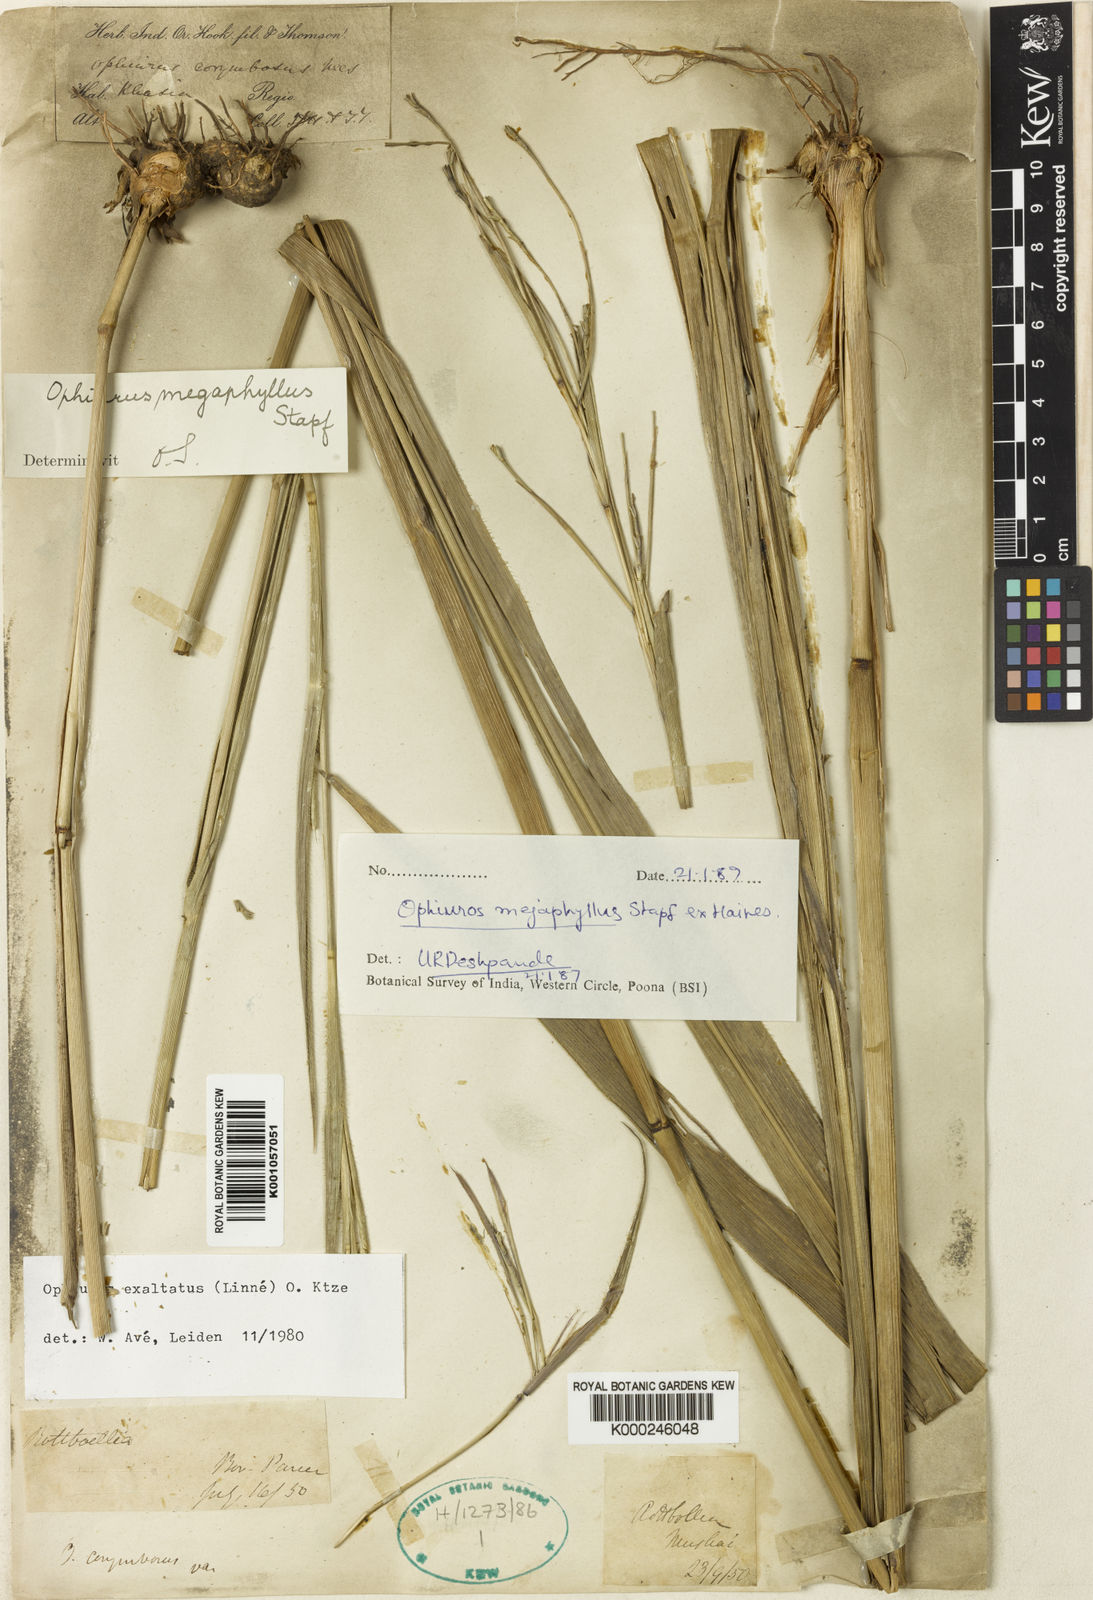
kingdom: Plantae
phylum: Tracheophyta
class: Liliopsida
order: Poales
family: Poaceae
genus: Ophiuros
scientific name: Ophiuros megaphyllus
